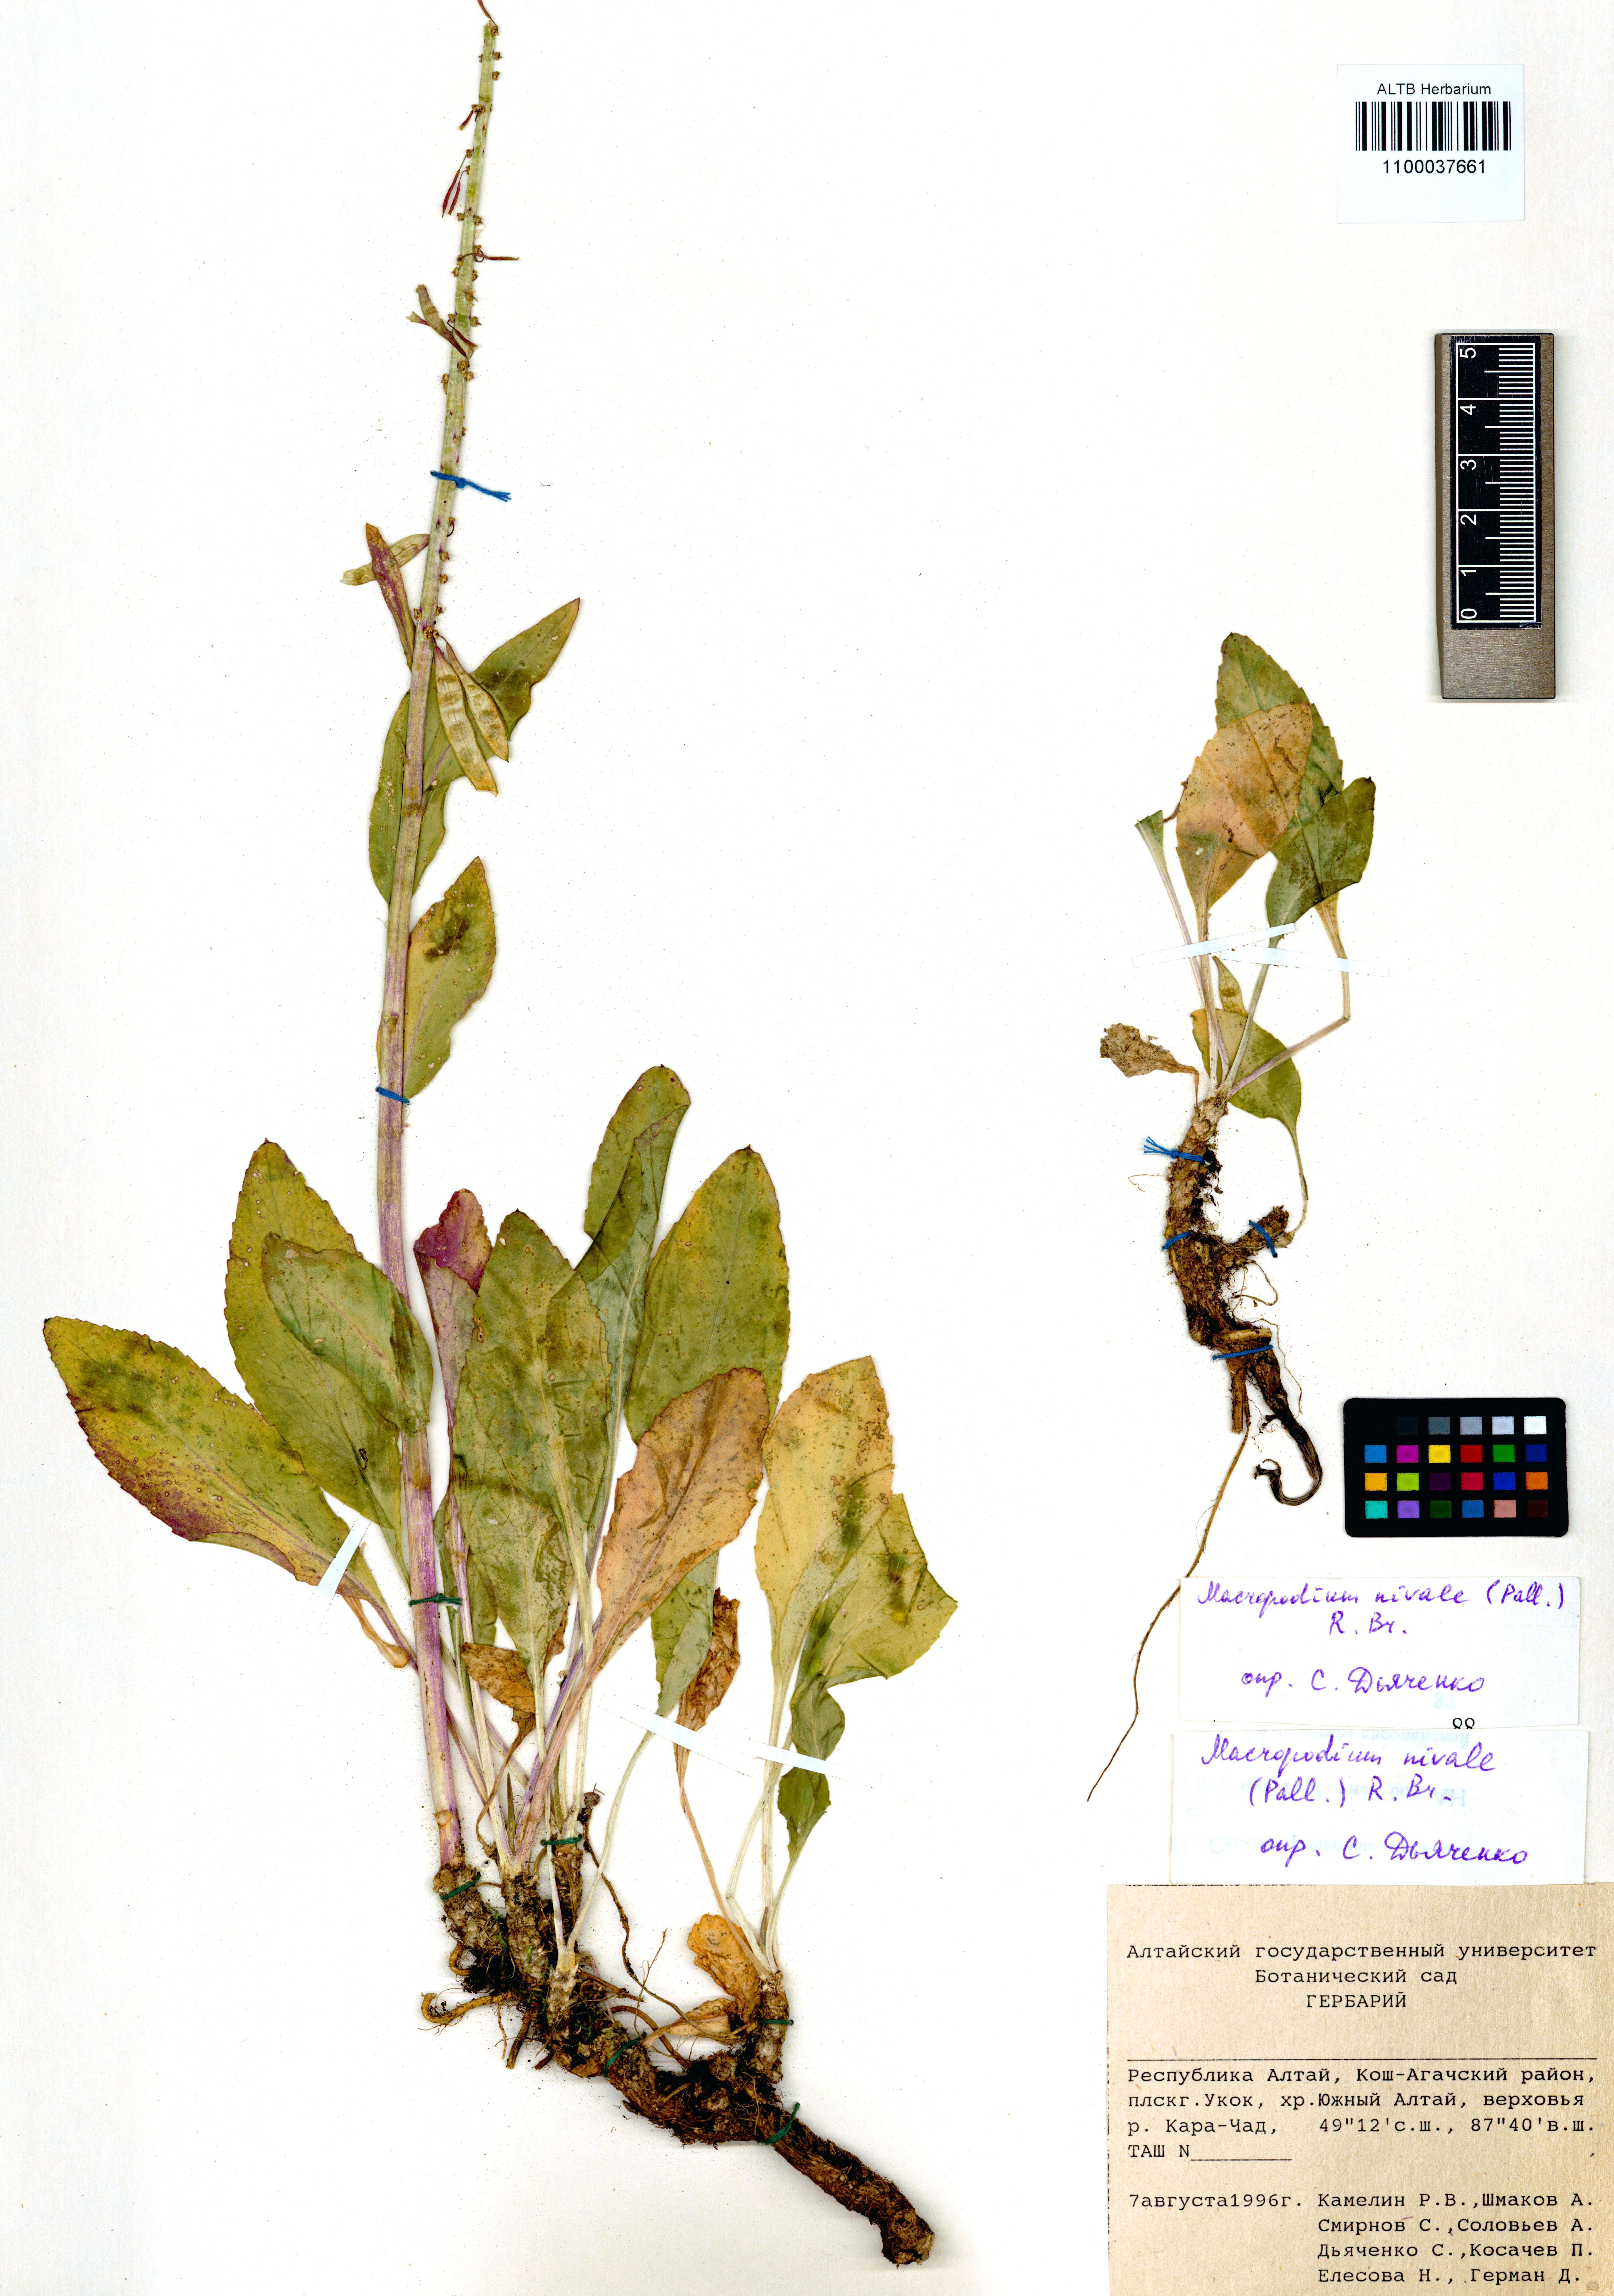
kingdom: Plantae
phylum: Tracheophyta
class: Magnoliopsida
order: Brassicales
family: Brassicaceae
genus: Macropodium
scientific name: Macropodium nivale
